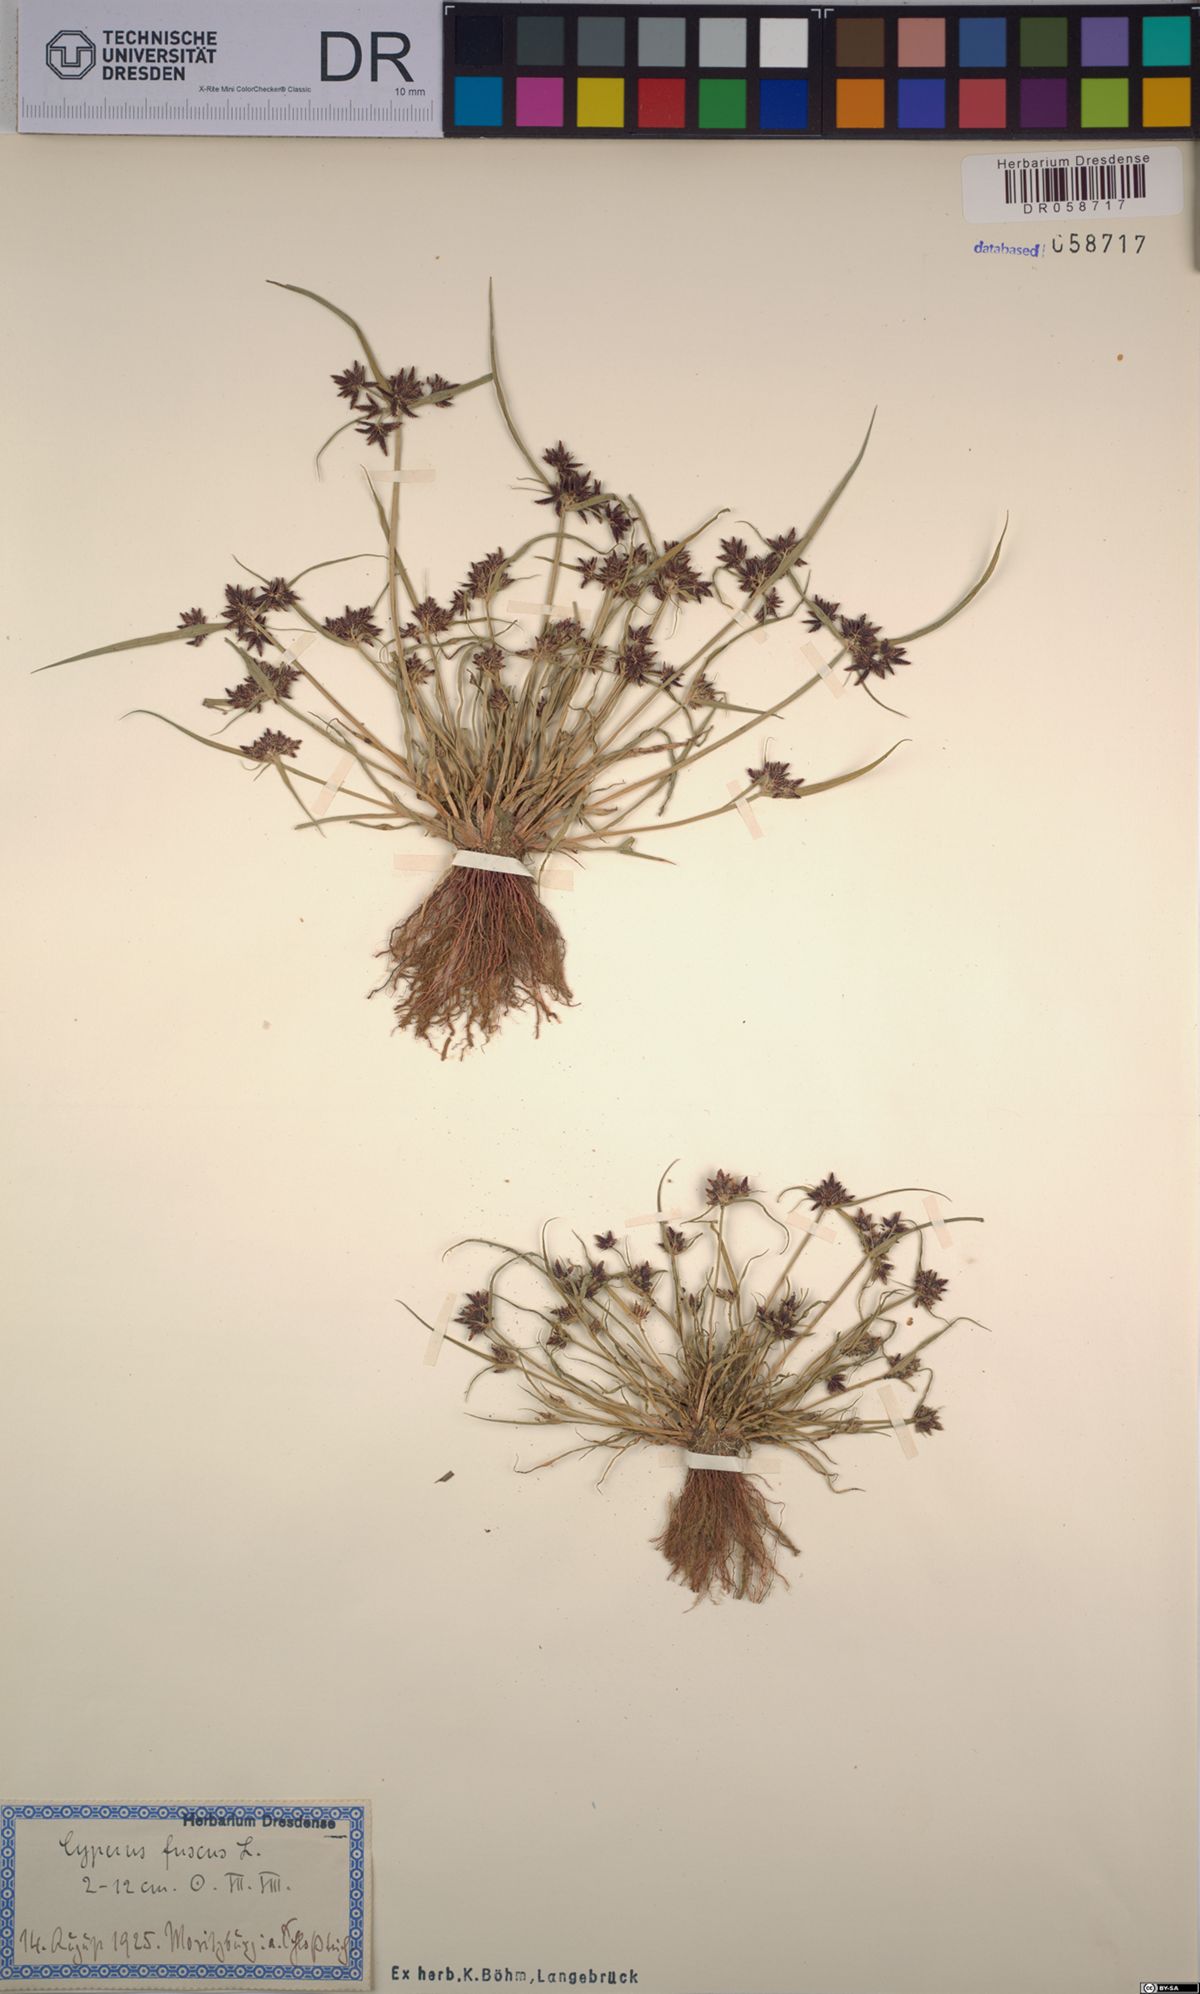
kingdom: Plantae
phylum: Tracheophyta
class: Liliopsida
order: Poales
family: Cyperaceae
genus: Cyperus
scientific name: Cyperus fuscus
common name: Brown galingale
